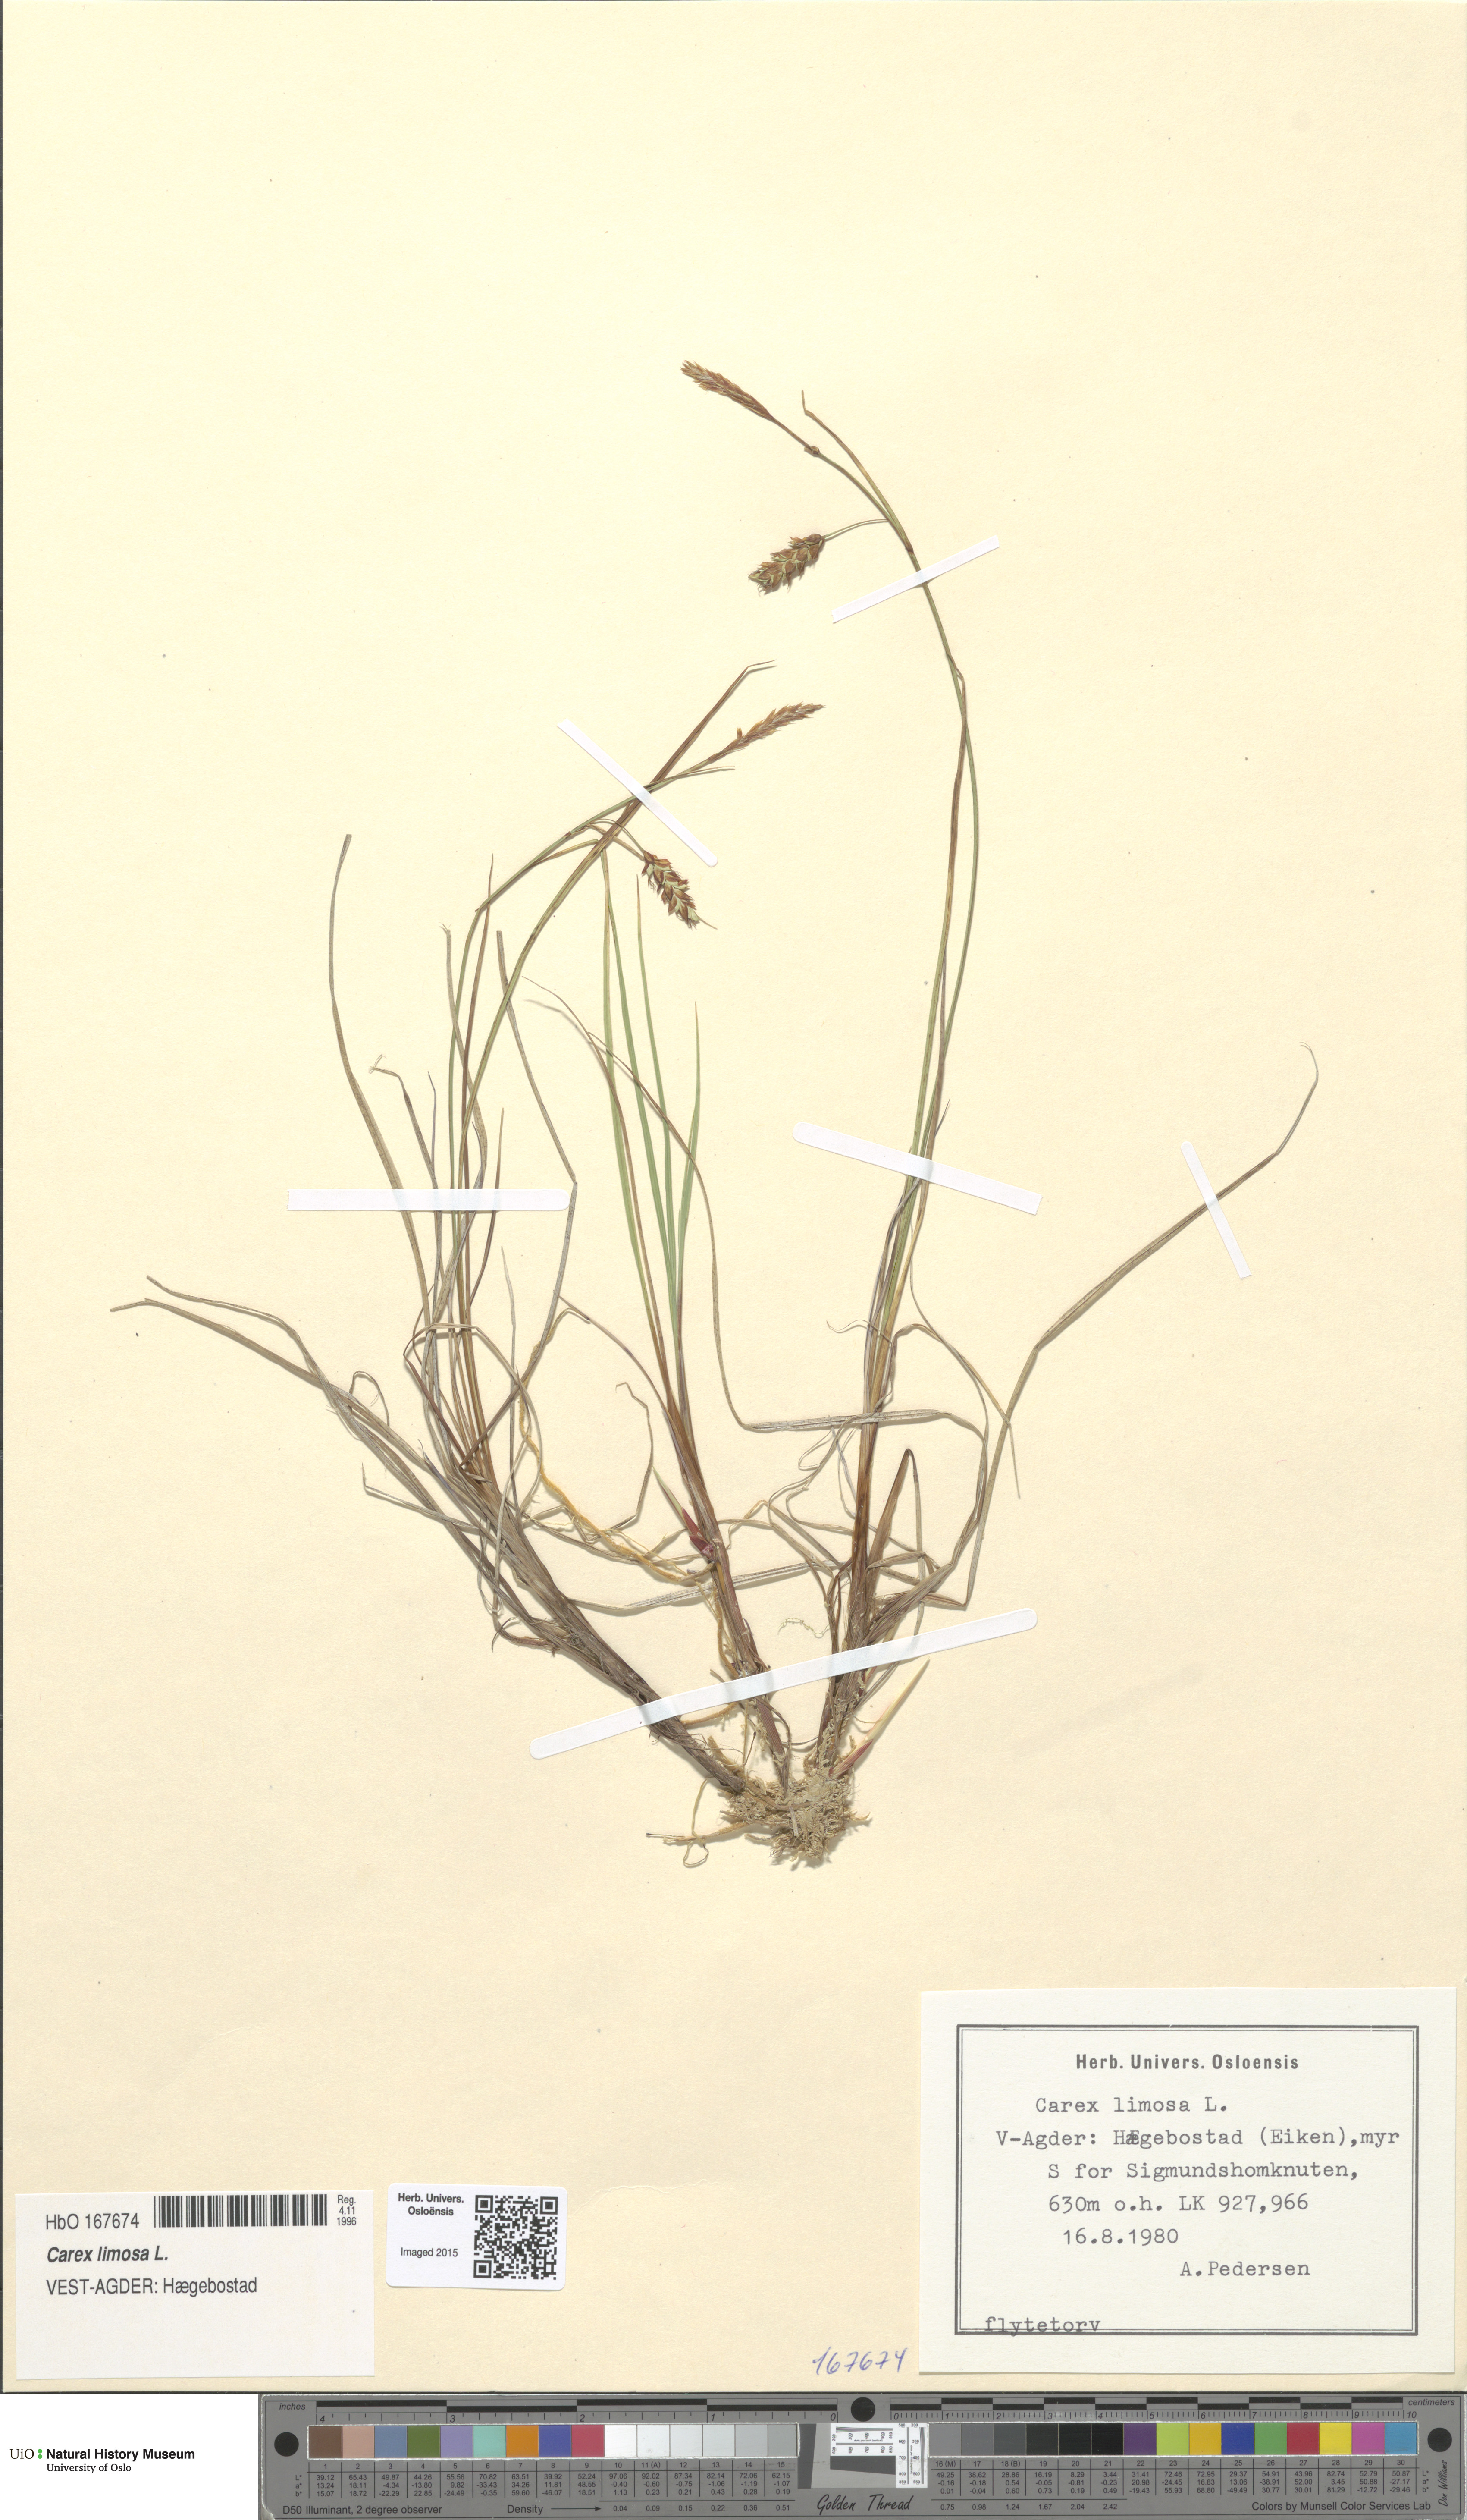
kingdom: Plantae
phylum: Tracheophyta
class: Liliopsida
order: Poales
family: Cyperaceae
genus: Carex
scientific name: Carex limosa
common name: Bog sedge
